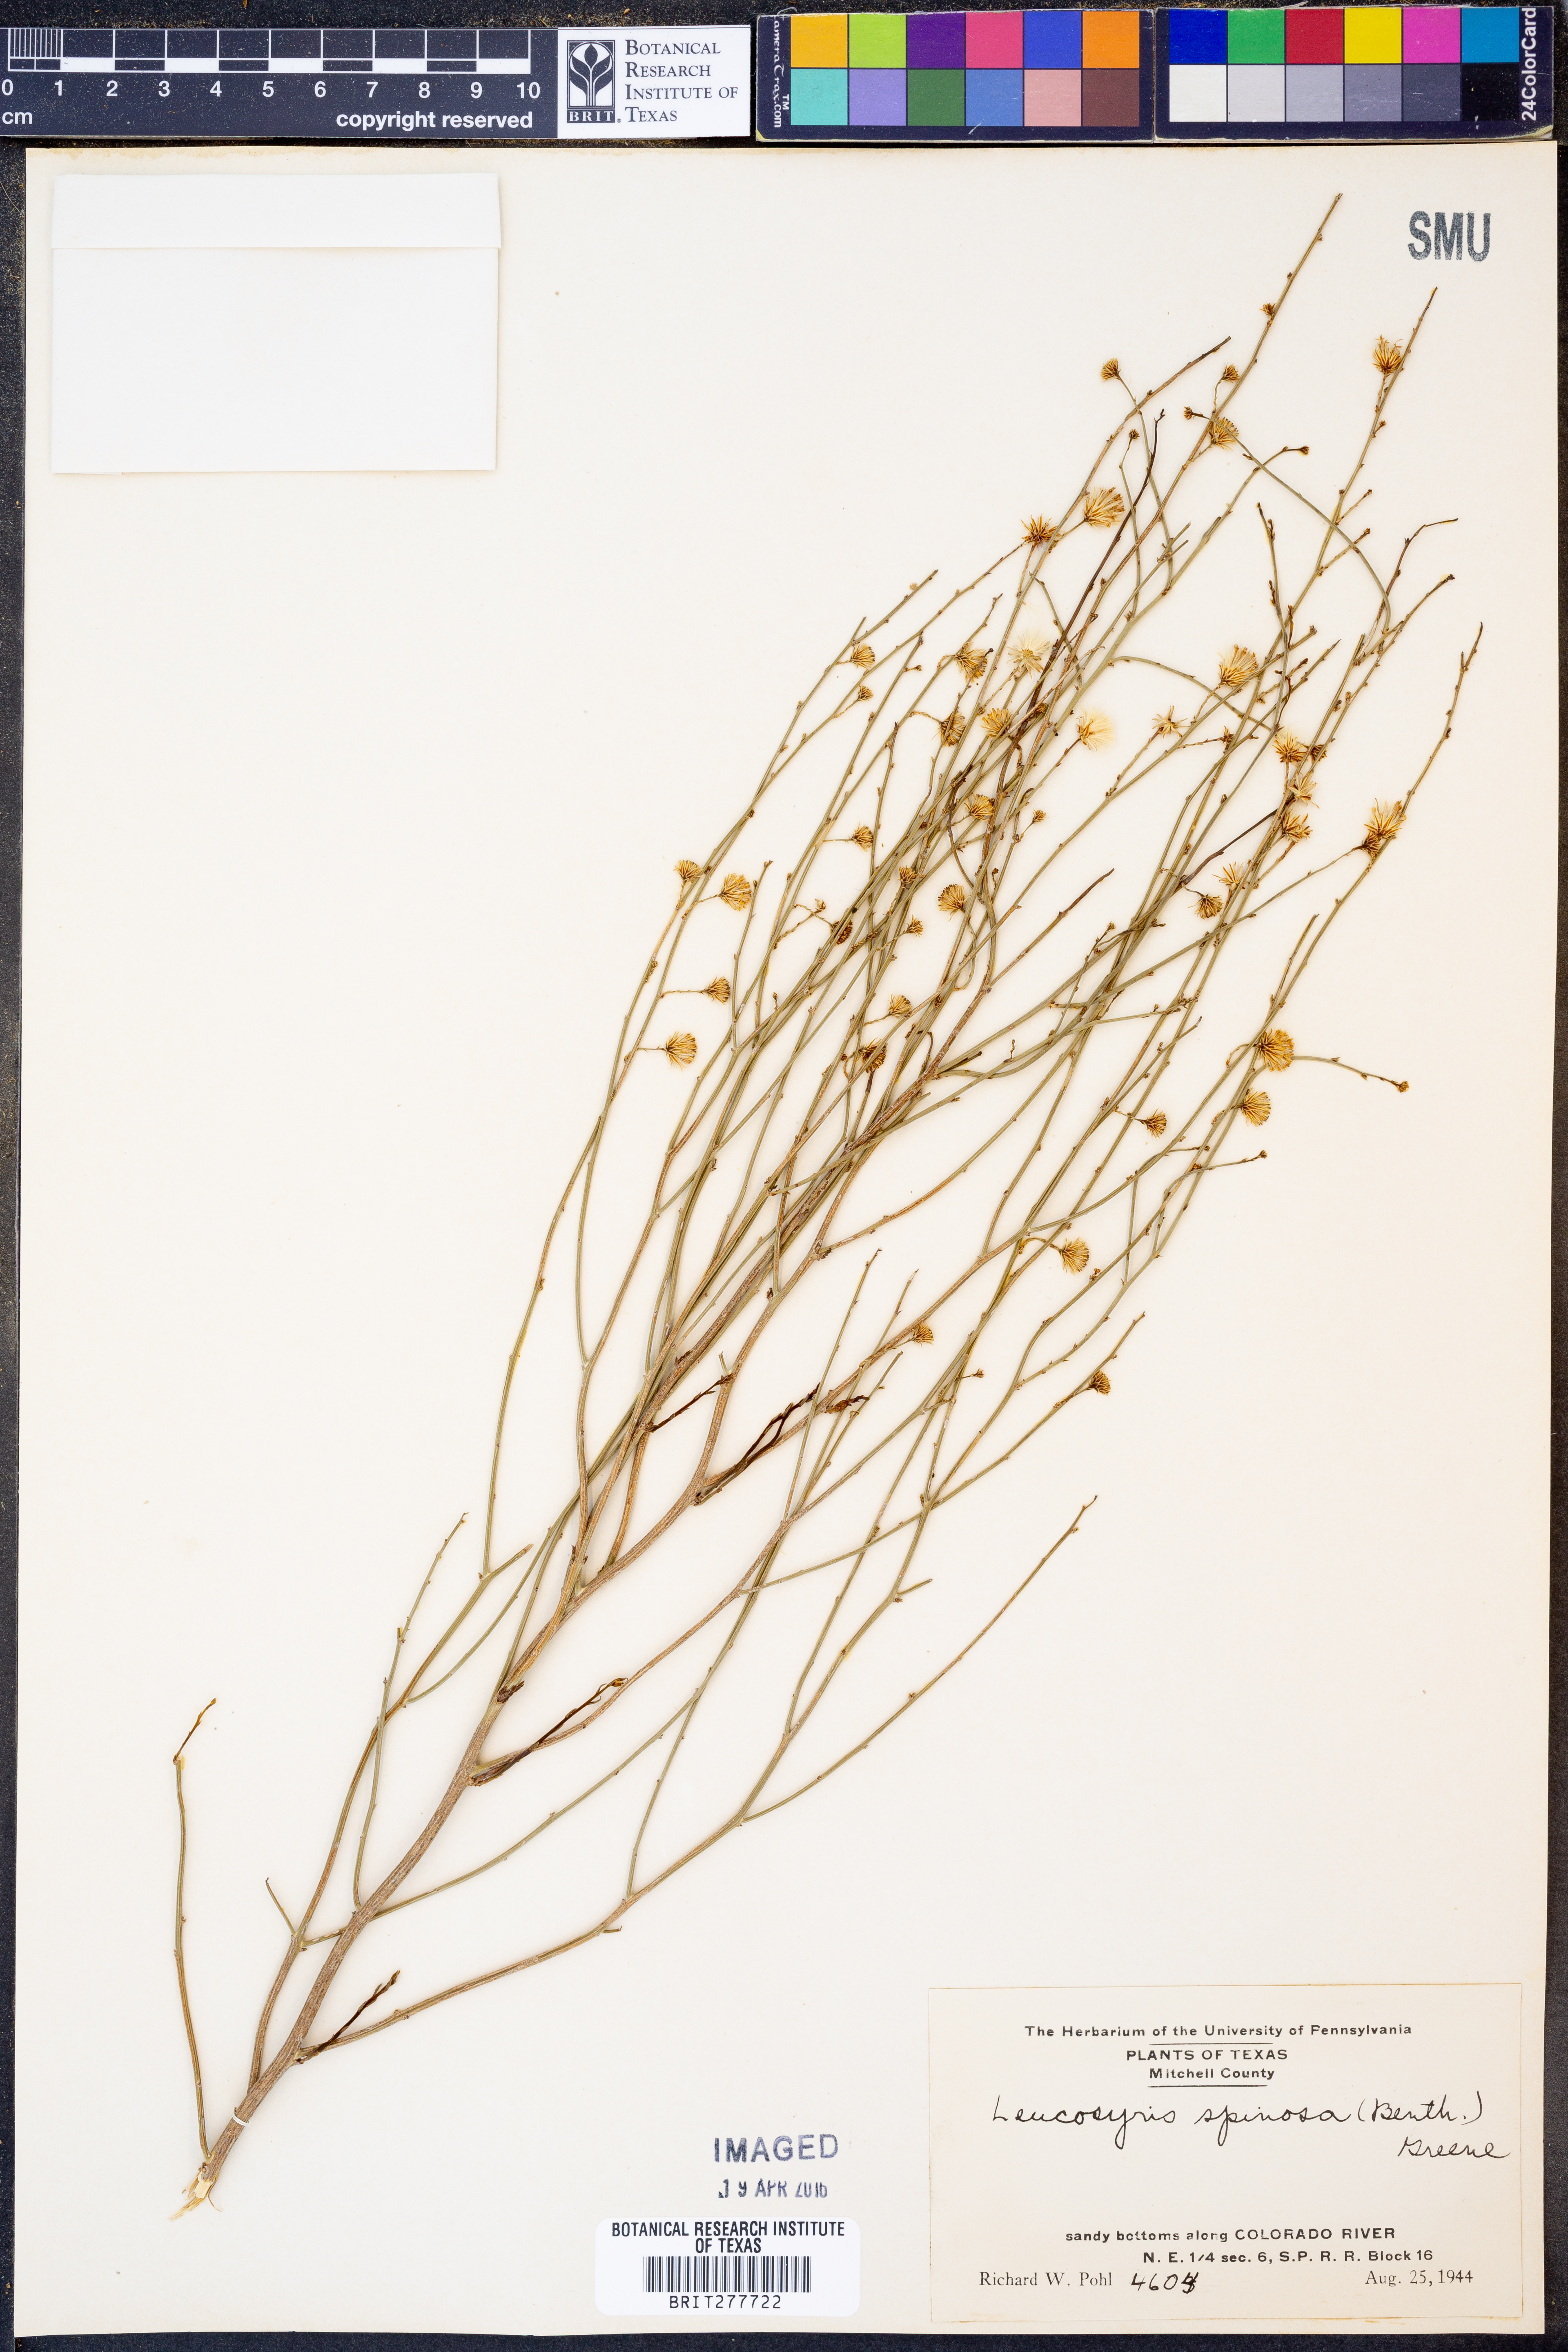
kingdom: Plantae
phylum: Tracheophyta
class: Magnoliopsida
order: Asterales
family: Asteraceae
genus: Chloracantha
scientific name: Chloracantha spinosa
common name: Mexican devilweed
